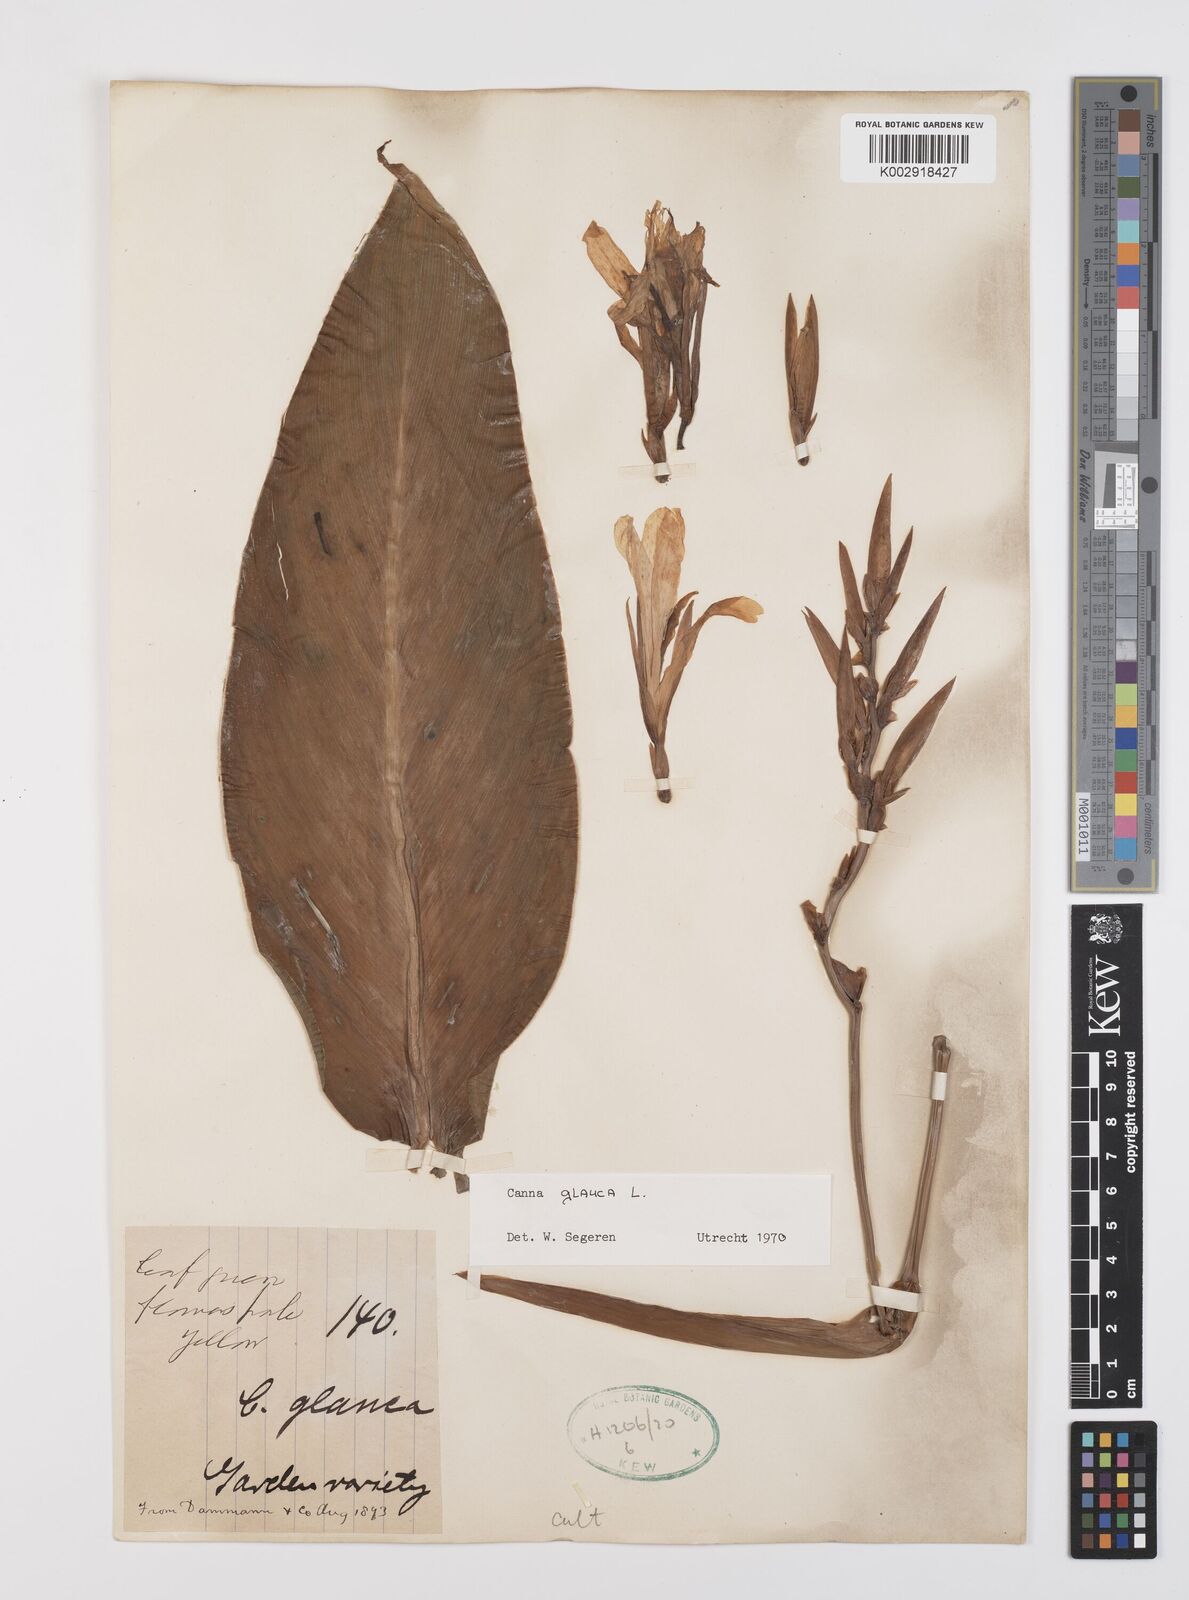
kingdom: Plantae
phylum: Tracheophyta
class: Liliopsida
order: Zingiberales
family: Cannaceae
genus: Canna
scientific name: Canna glauca
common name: Louisiana canna
